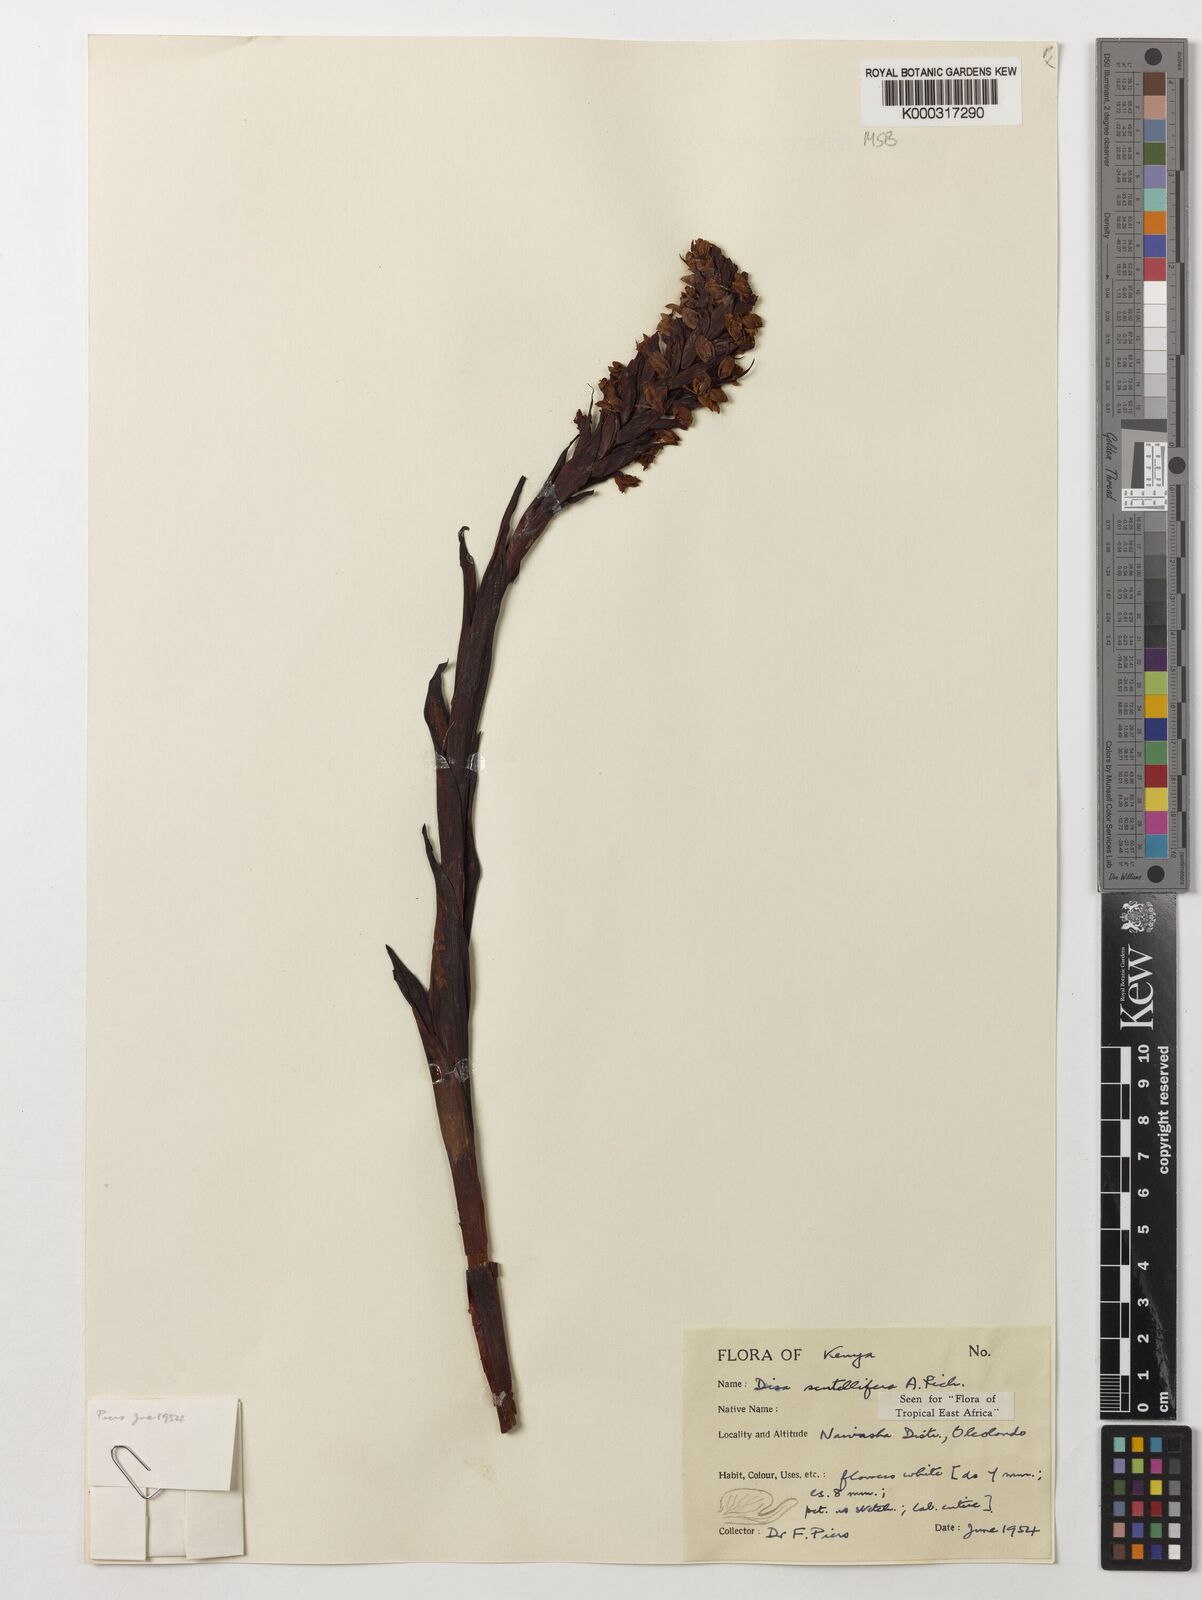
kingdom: Plantae
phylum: Tracheophyta
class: Liliopsida
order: Asparagales
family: Orchidaceae
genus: Disa
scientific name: Disa scutellifera
